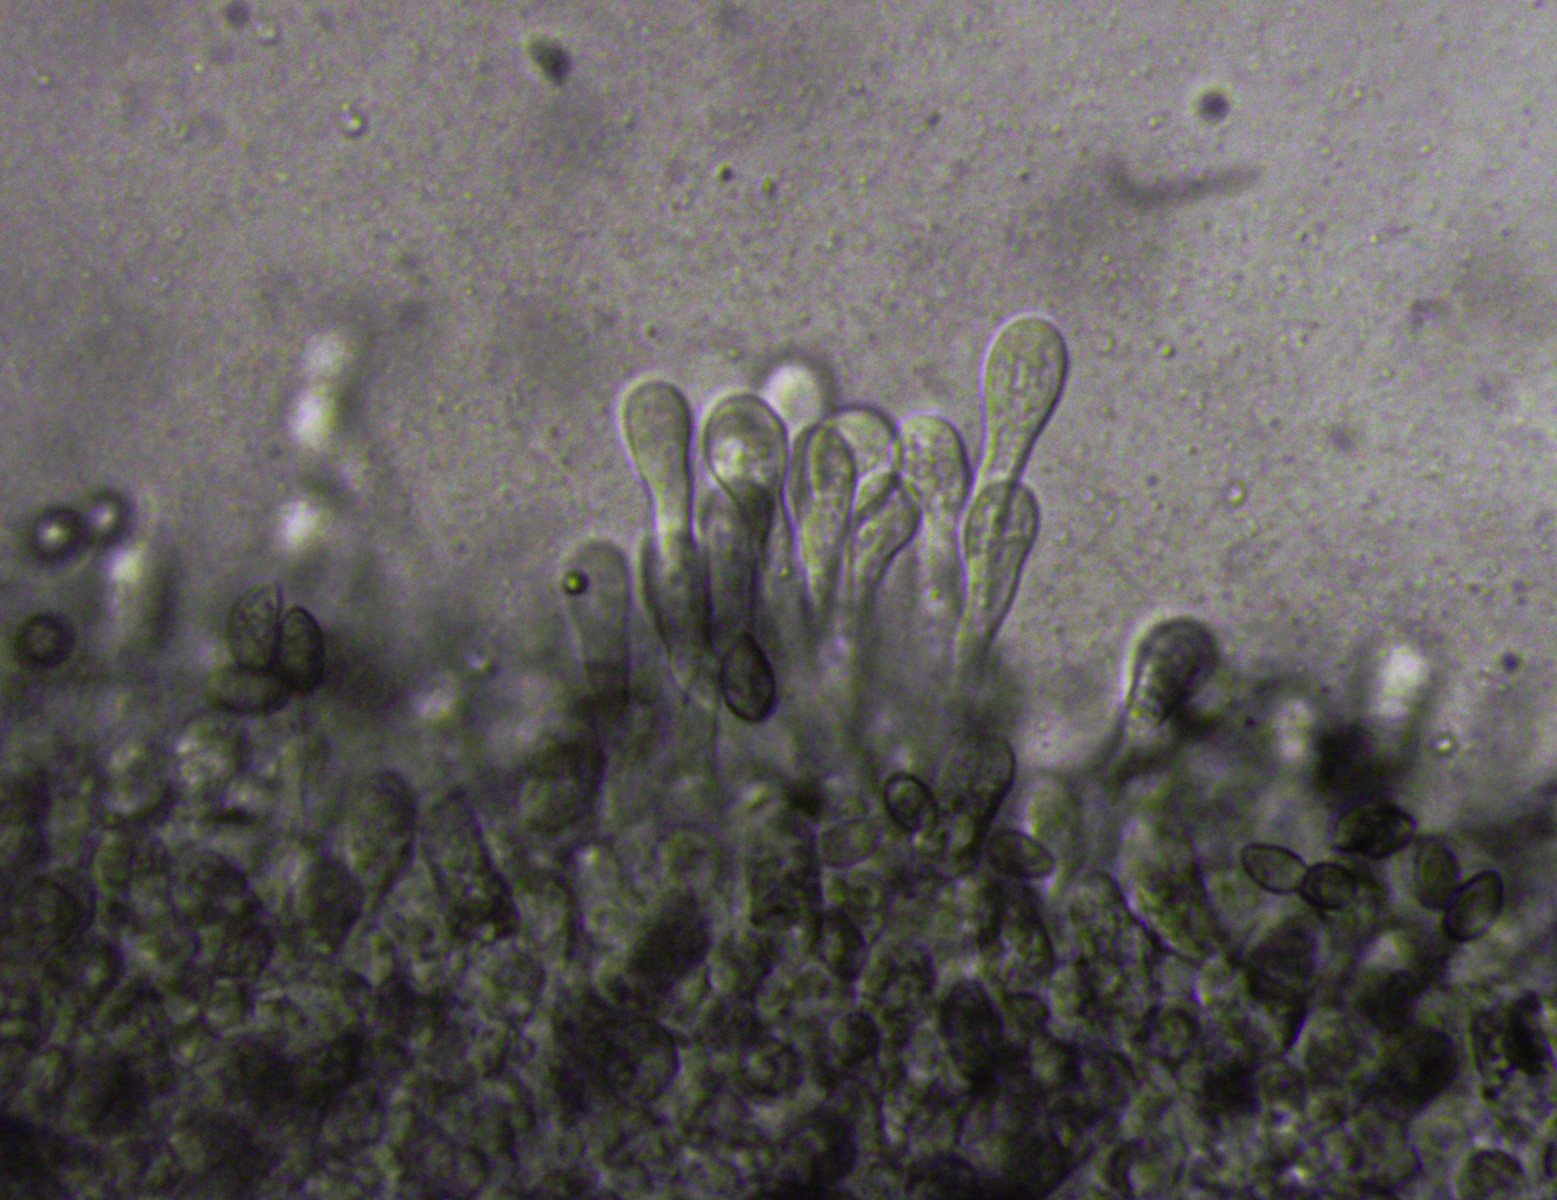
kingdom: Fungi
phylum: Basidiomycota
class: Agaricomycetes
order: Agaricales
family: Hymenogastraceae
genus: Hebeloma
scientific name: Hebeloma eburneum
